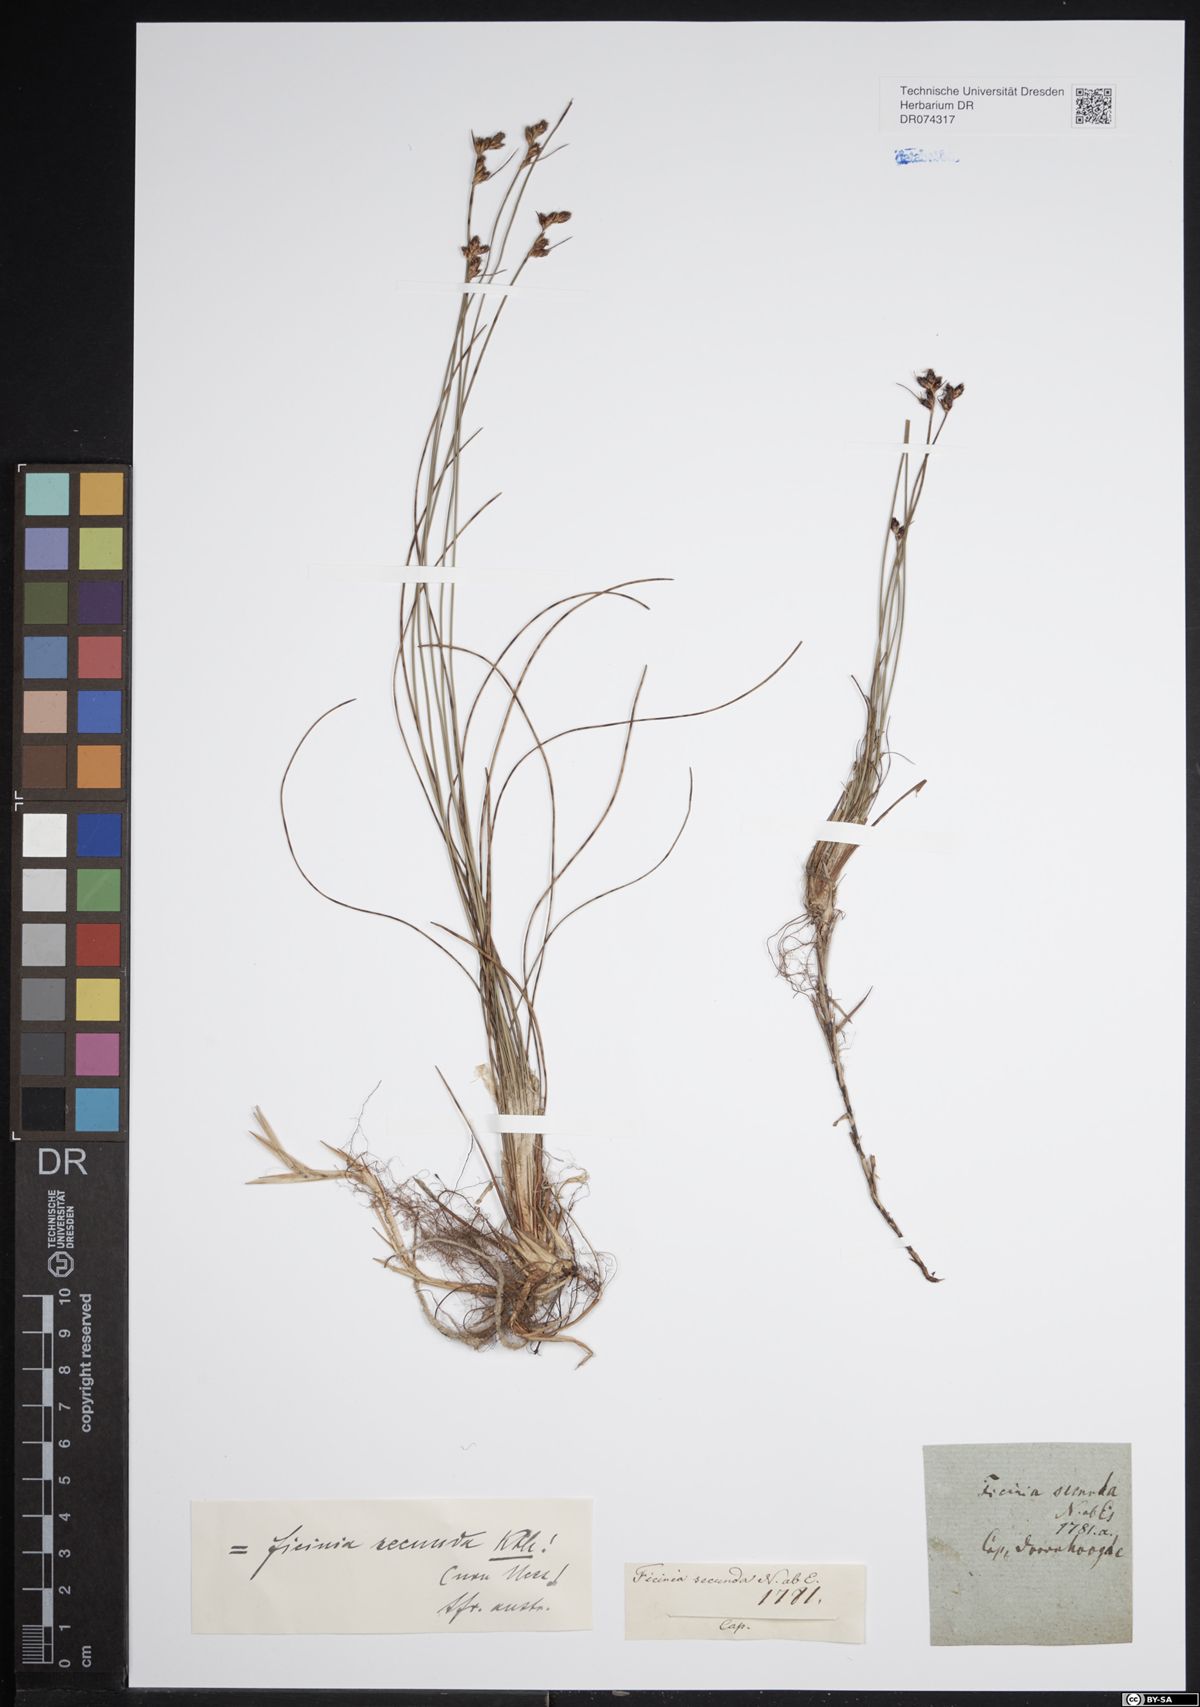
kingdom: Plantae
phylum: Tracheophyta
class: Liliopsida
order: Poales
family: Cyperaceae
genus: Ficinia
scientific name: Ficinia secunda
